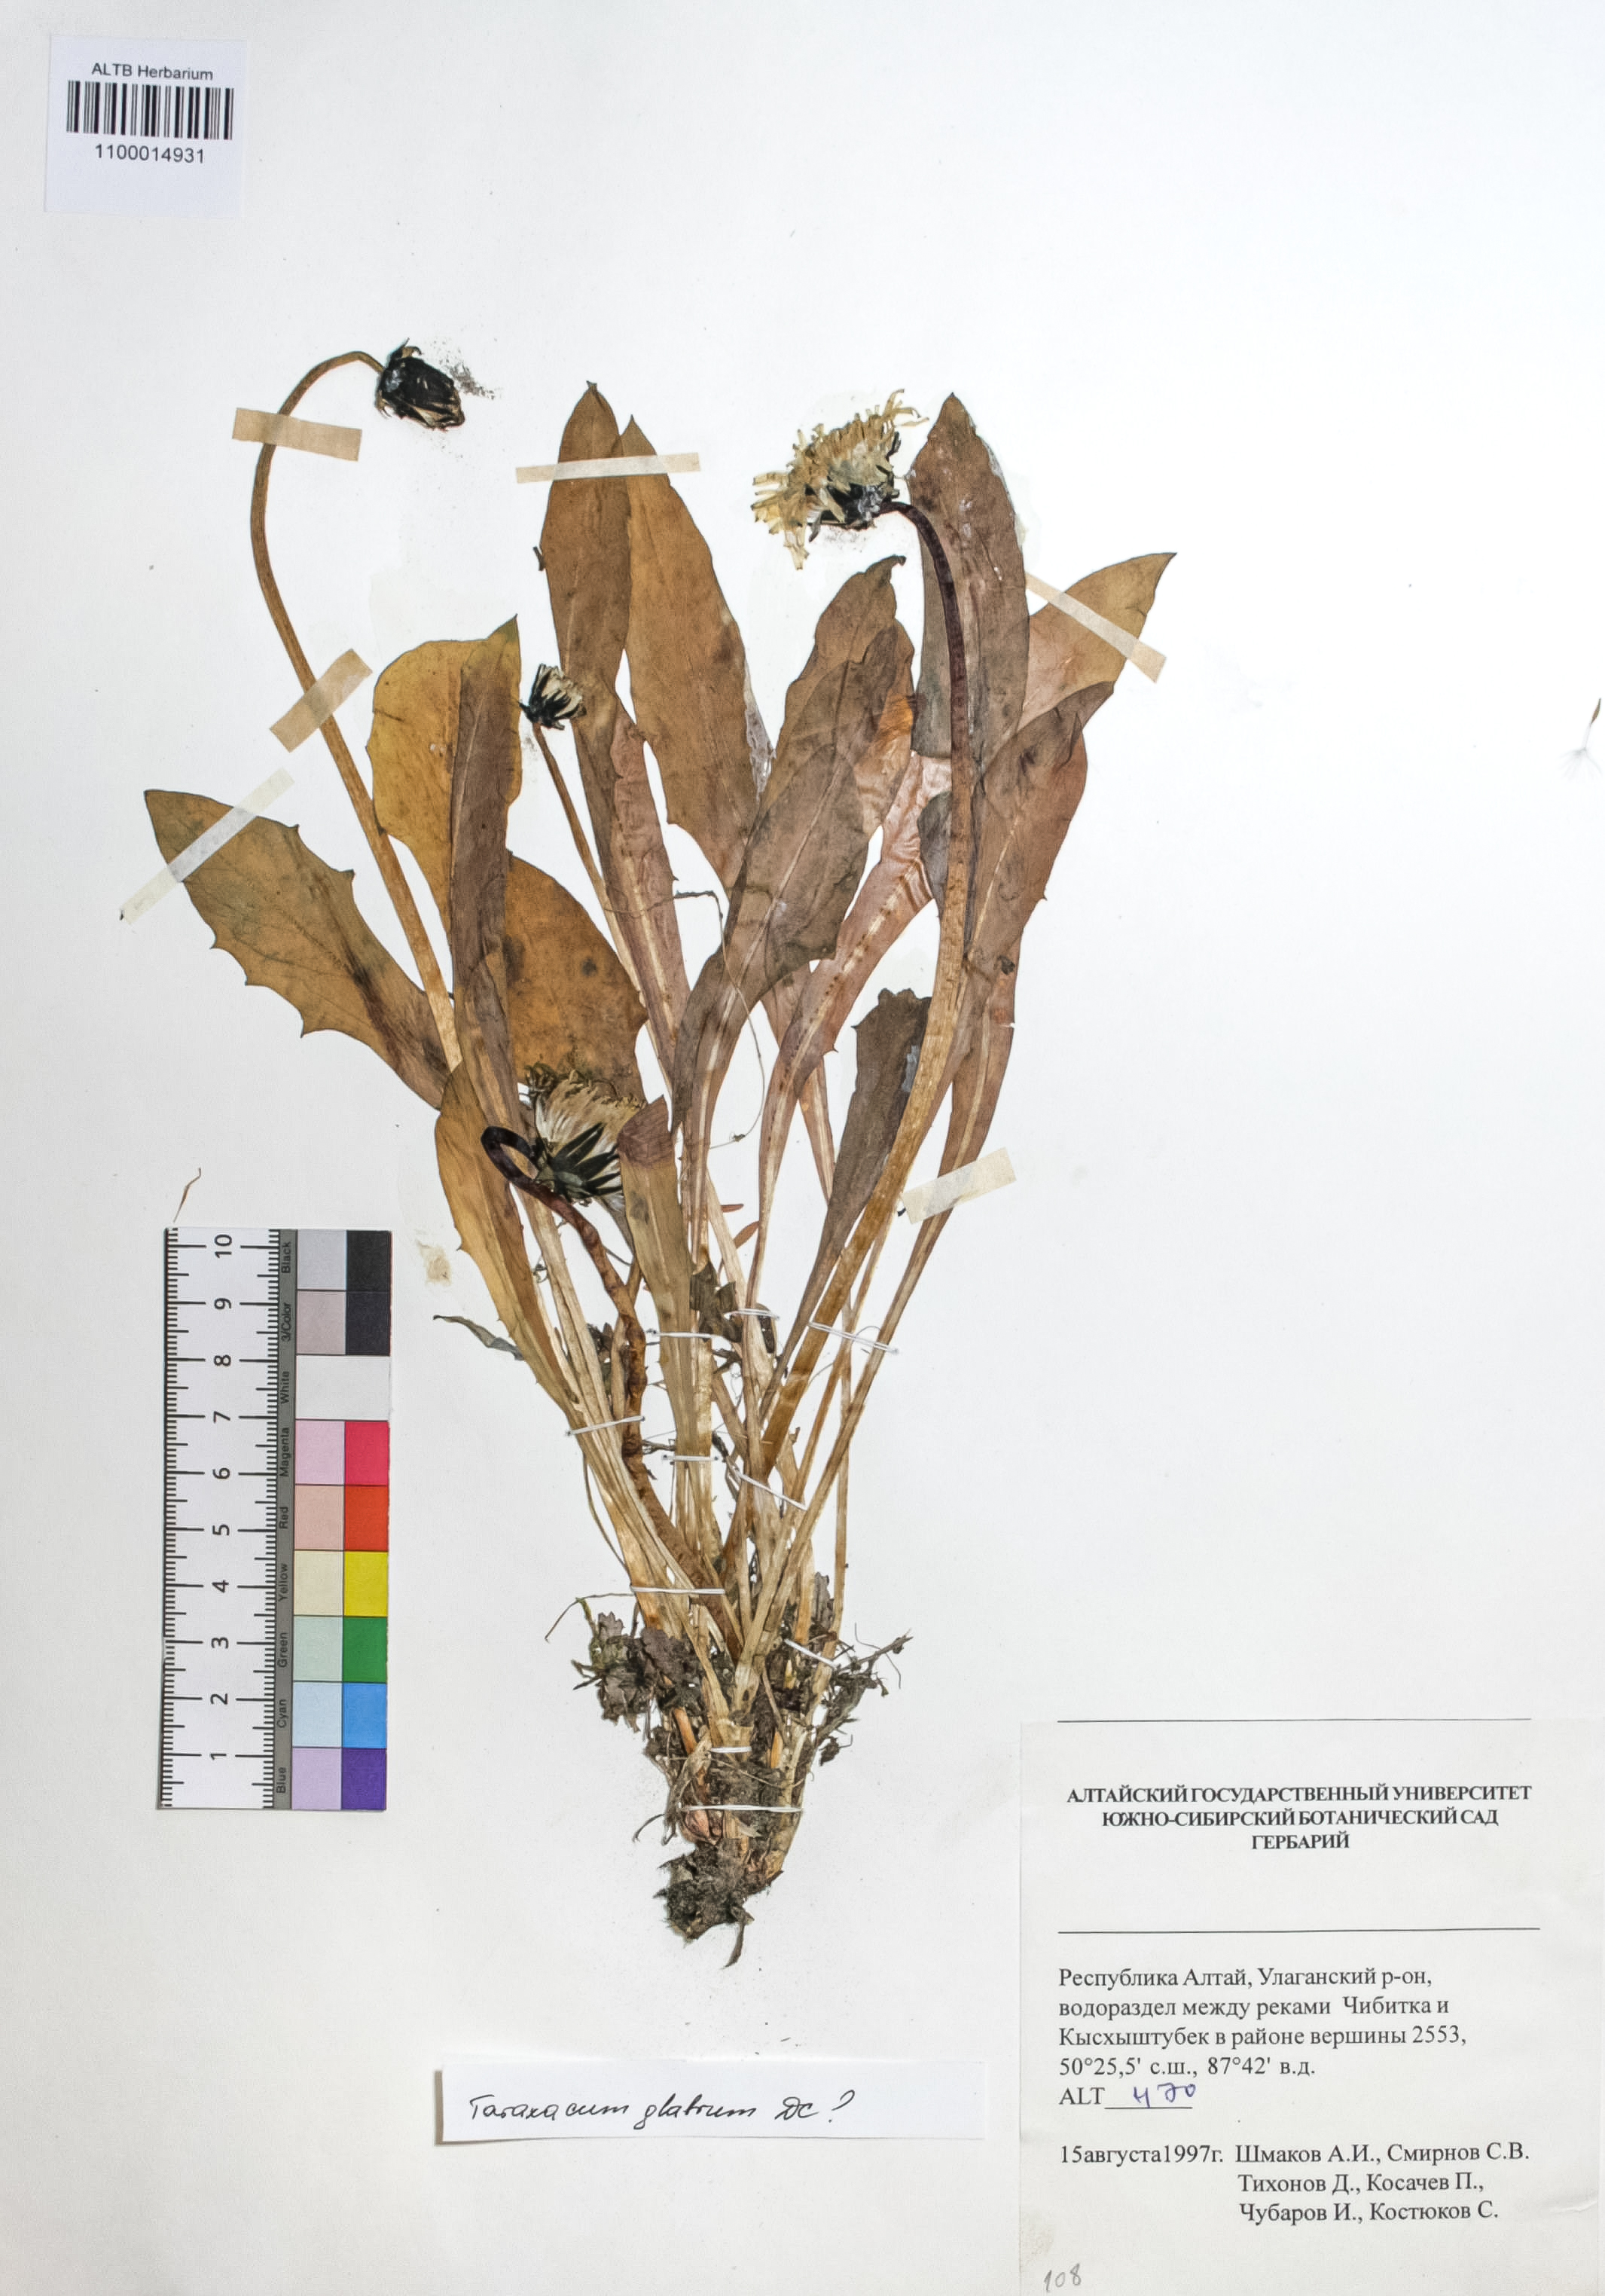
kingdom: Plantae
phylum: Tracheophyta
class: Magnoliopsida
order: Asterales
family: Asteraceae
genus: Taraxacum
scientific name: Taraxacum glabrum
